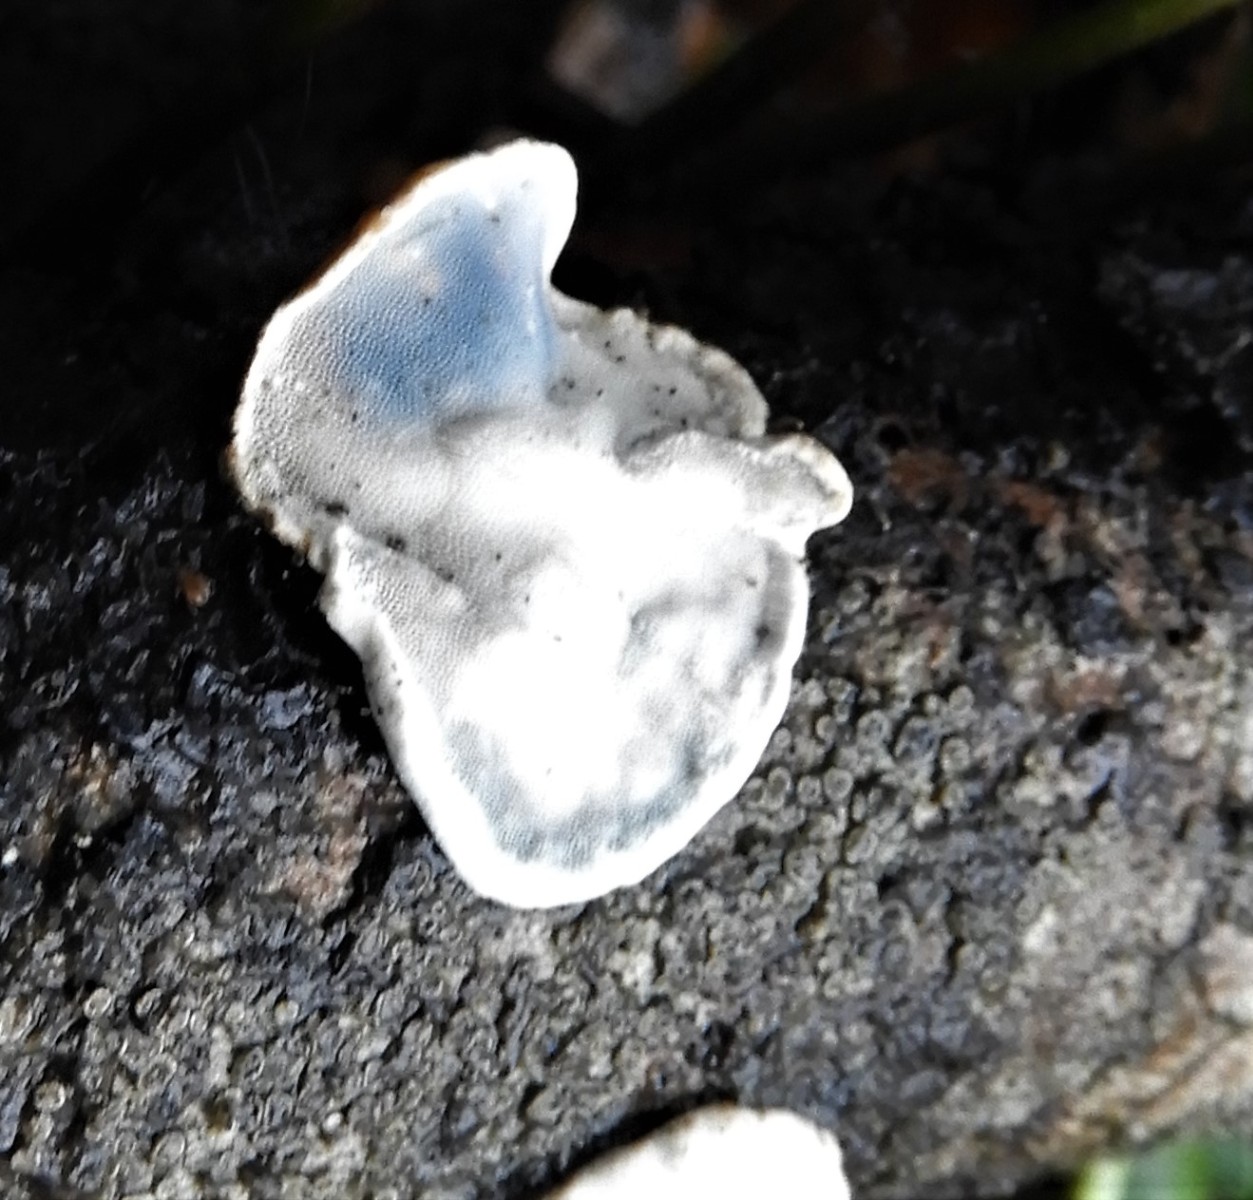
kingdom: Fungi
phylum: Basidiomycota
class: Agaricomycetes
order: Polyporales
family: Incrustoporiaceae
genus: Skeletocutis
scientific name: Skeletocutis nemoralis
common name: stor krystalporesvamp
